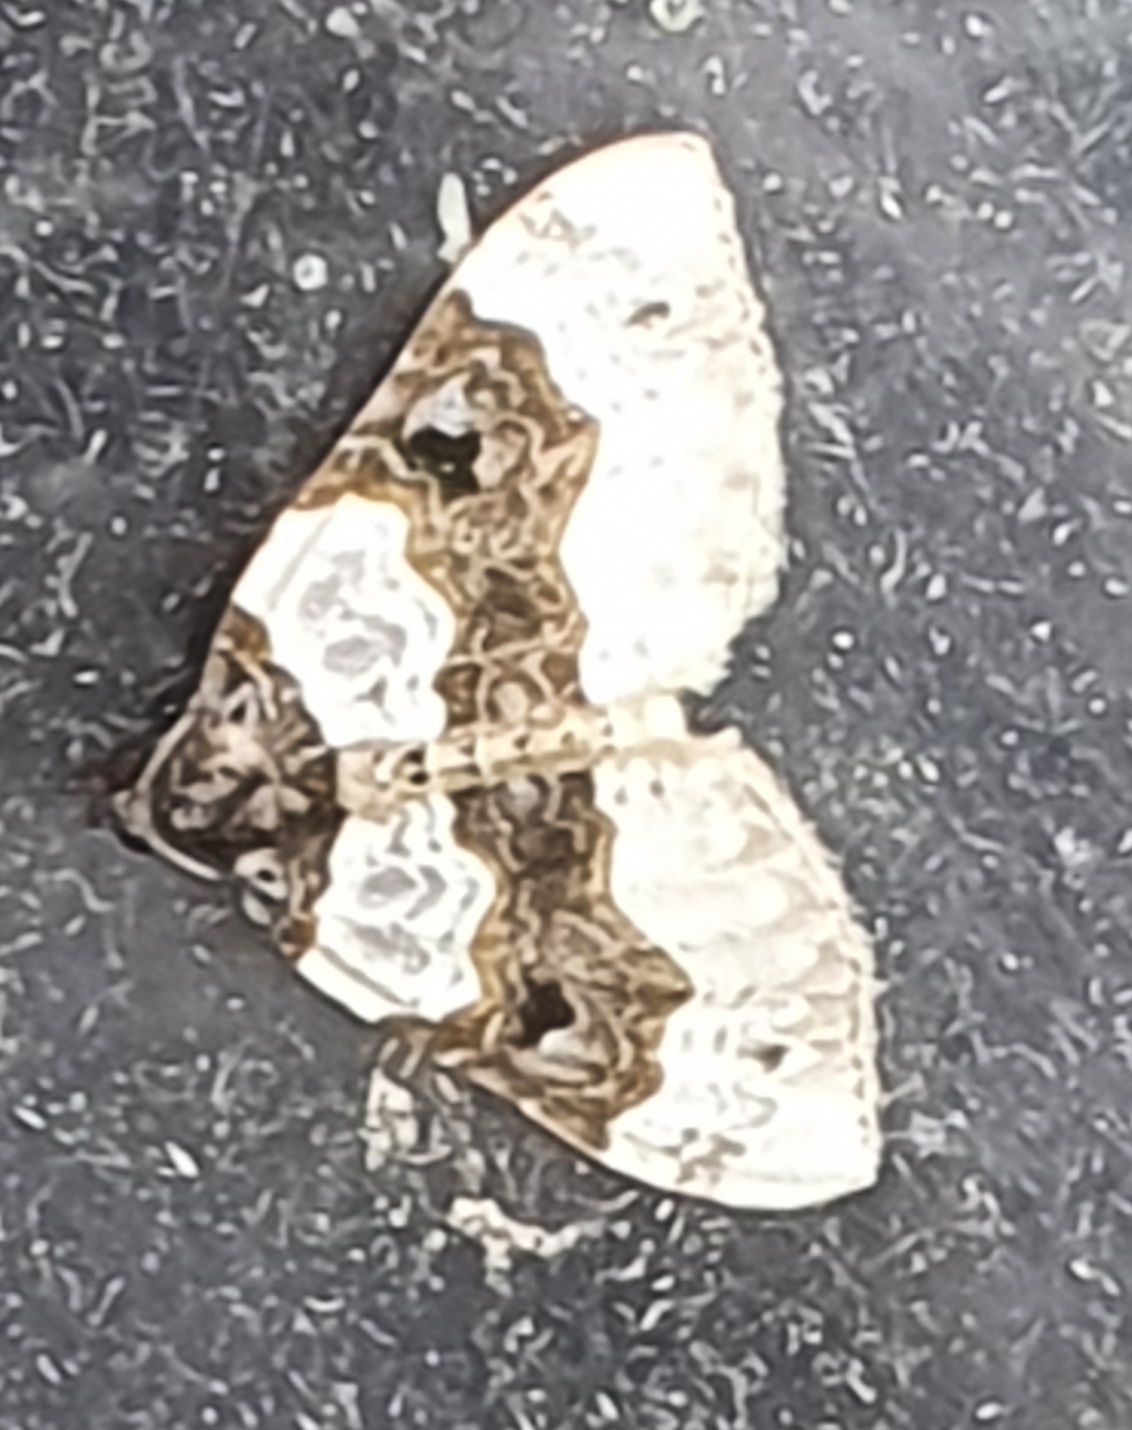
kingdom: Animalia
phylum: Arthropoda
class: Insecta
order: Lepidoptera
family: Geometridae
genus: Cosmorhoe
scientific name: Cosmorhoe ocellata
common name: Snerre-bladmåler
